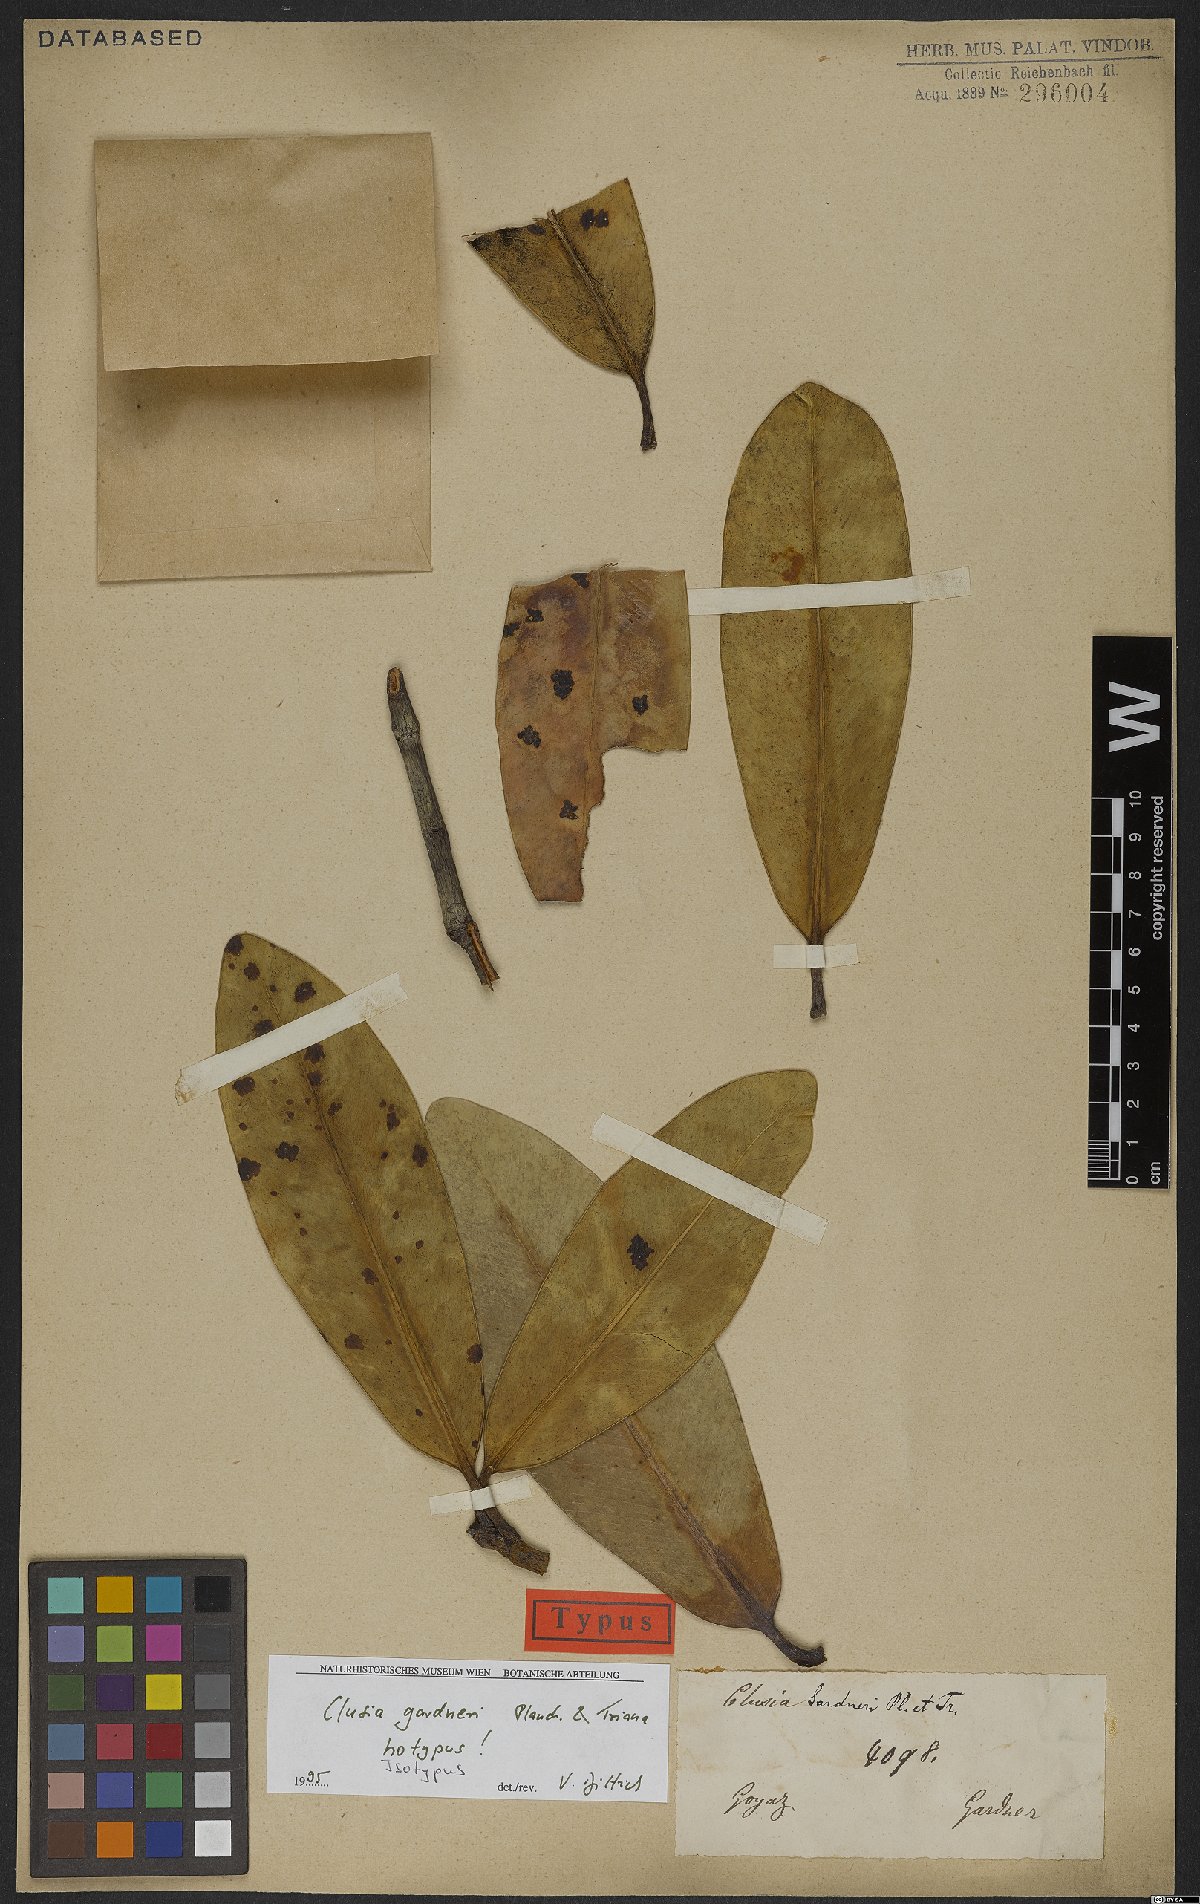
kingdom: Plantae
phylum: Tracheophyta
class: Magnoliopsida
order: Malpighiales
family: Clusiaceae
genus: Clusia
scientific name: Clusia gardneri
